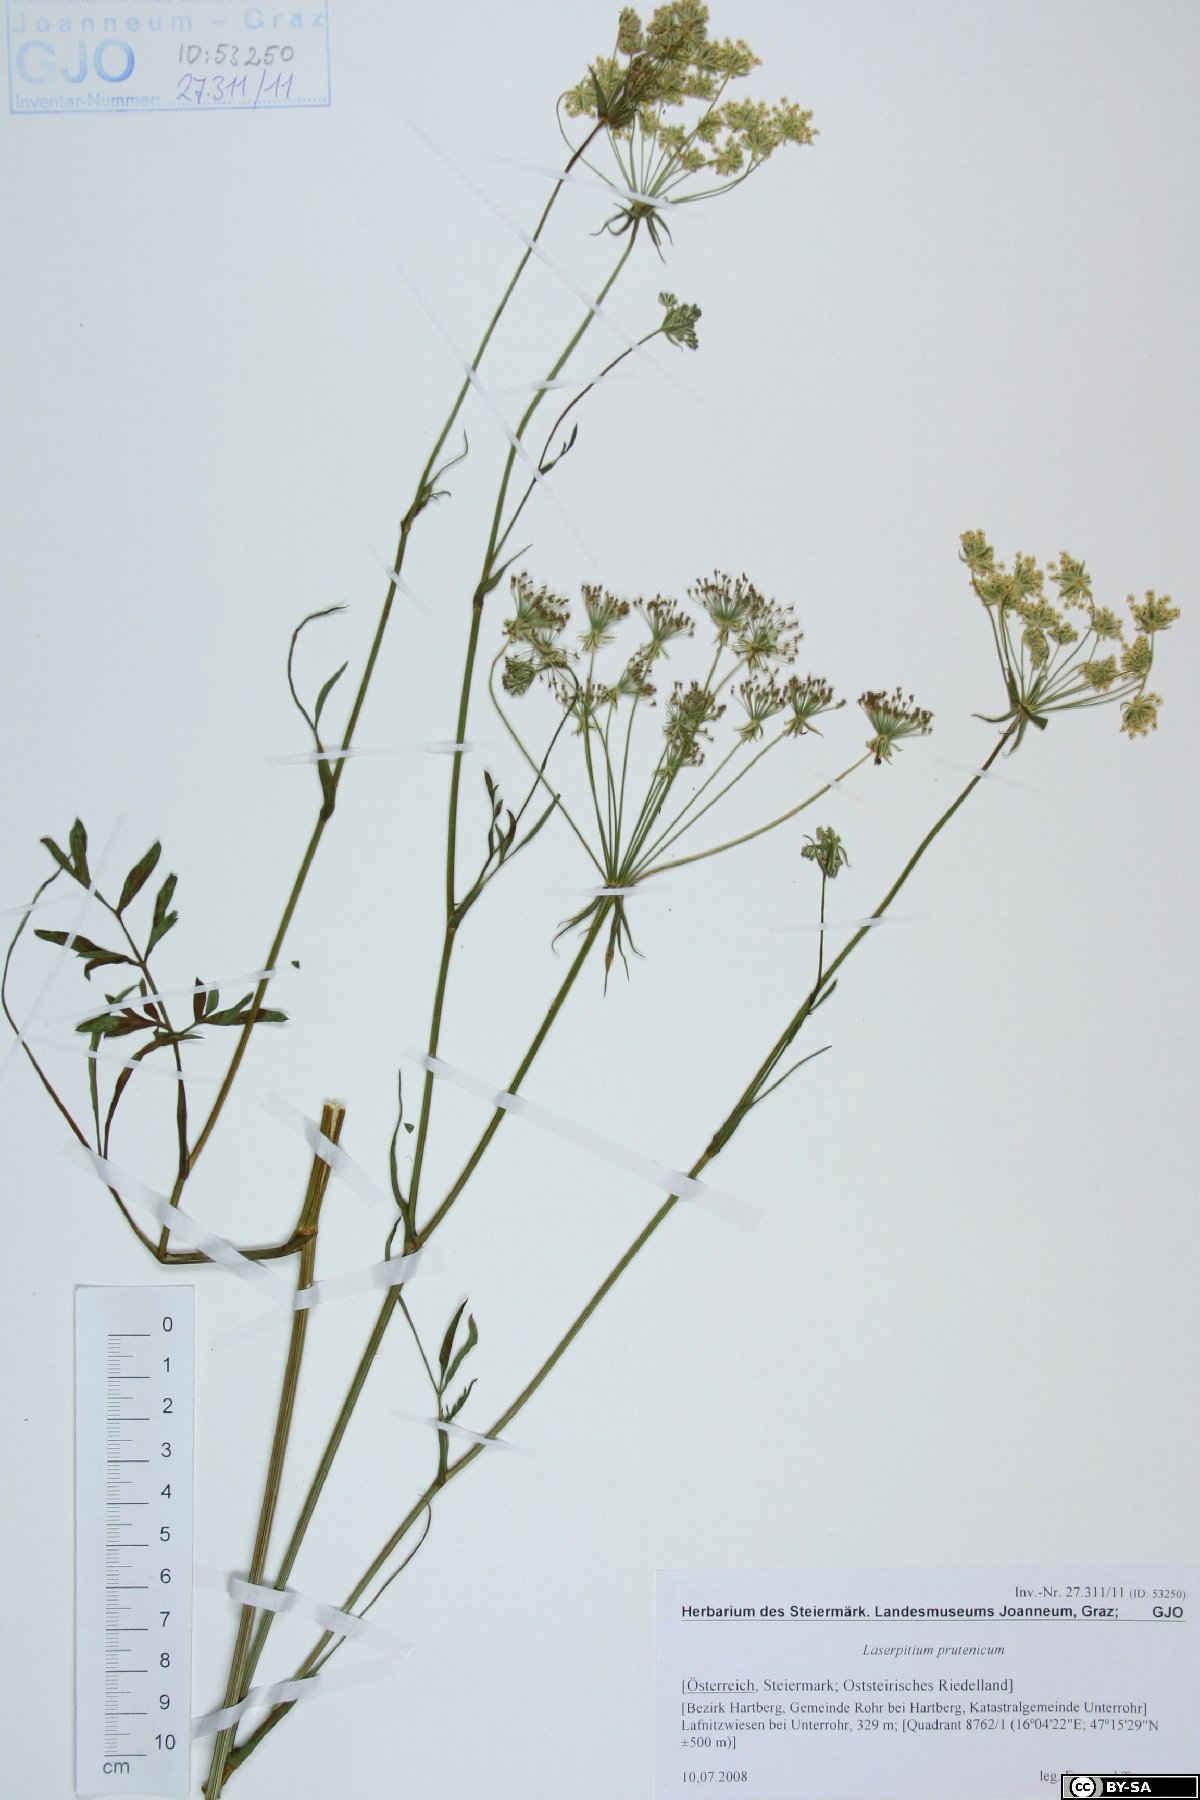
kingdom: Plantae
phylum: Tracheophyta
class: Magnoliopsida
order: Apiales
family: Apiaceae
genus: Silphiodaucus
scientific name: Silphiodaucus prutenicus
